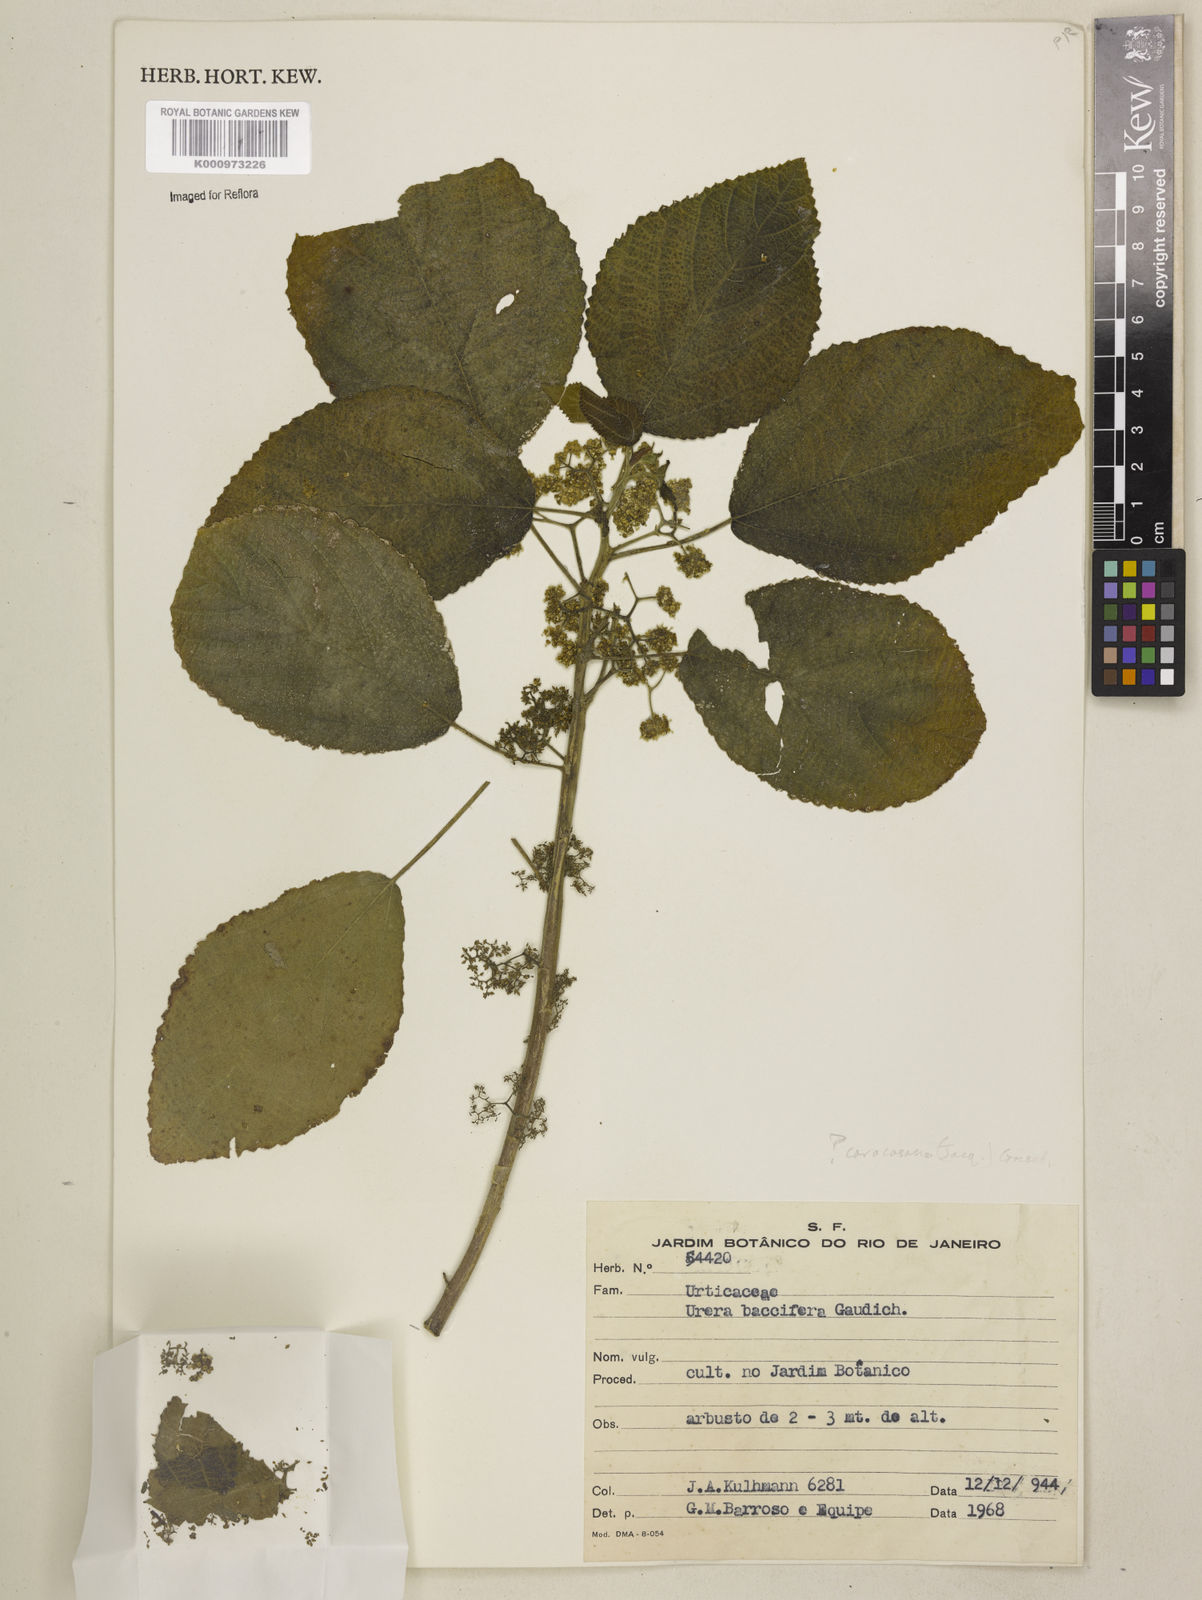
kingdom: Plantae
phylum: Tracheophyta
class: Magnoliopsida
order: Rosales
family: Urticaceae
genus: Urera
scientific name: Urera caracasana
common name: Flameberry
